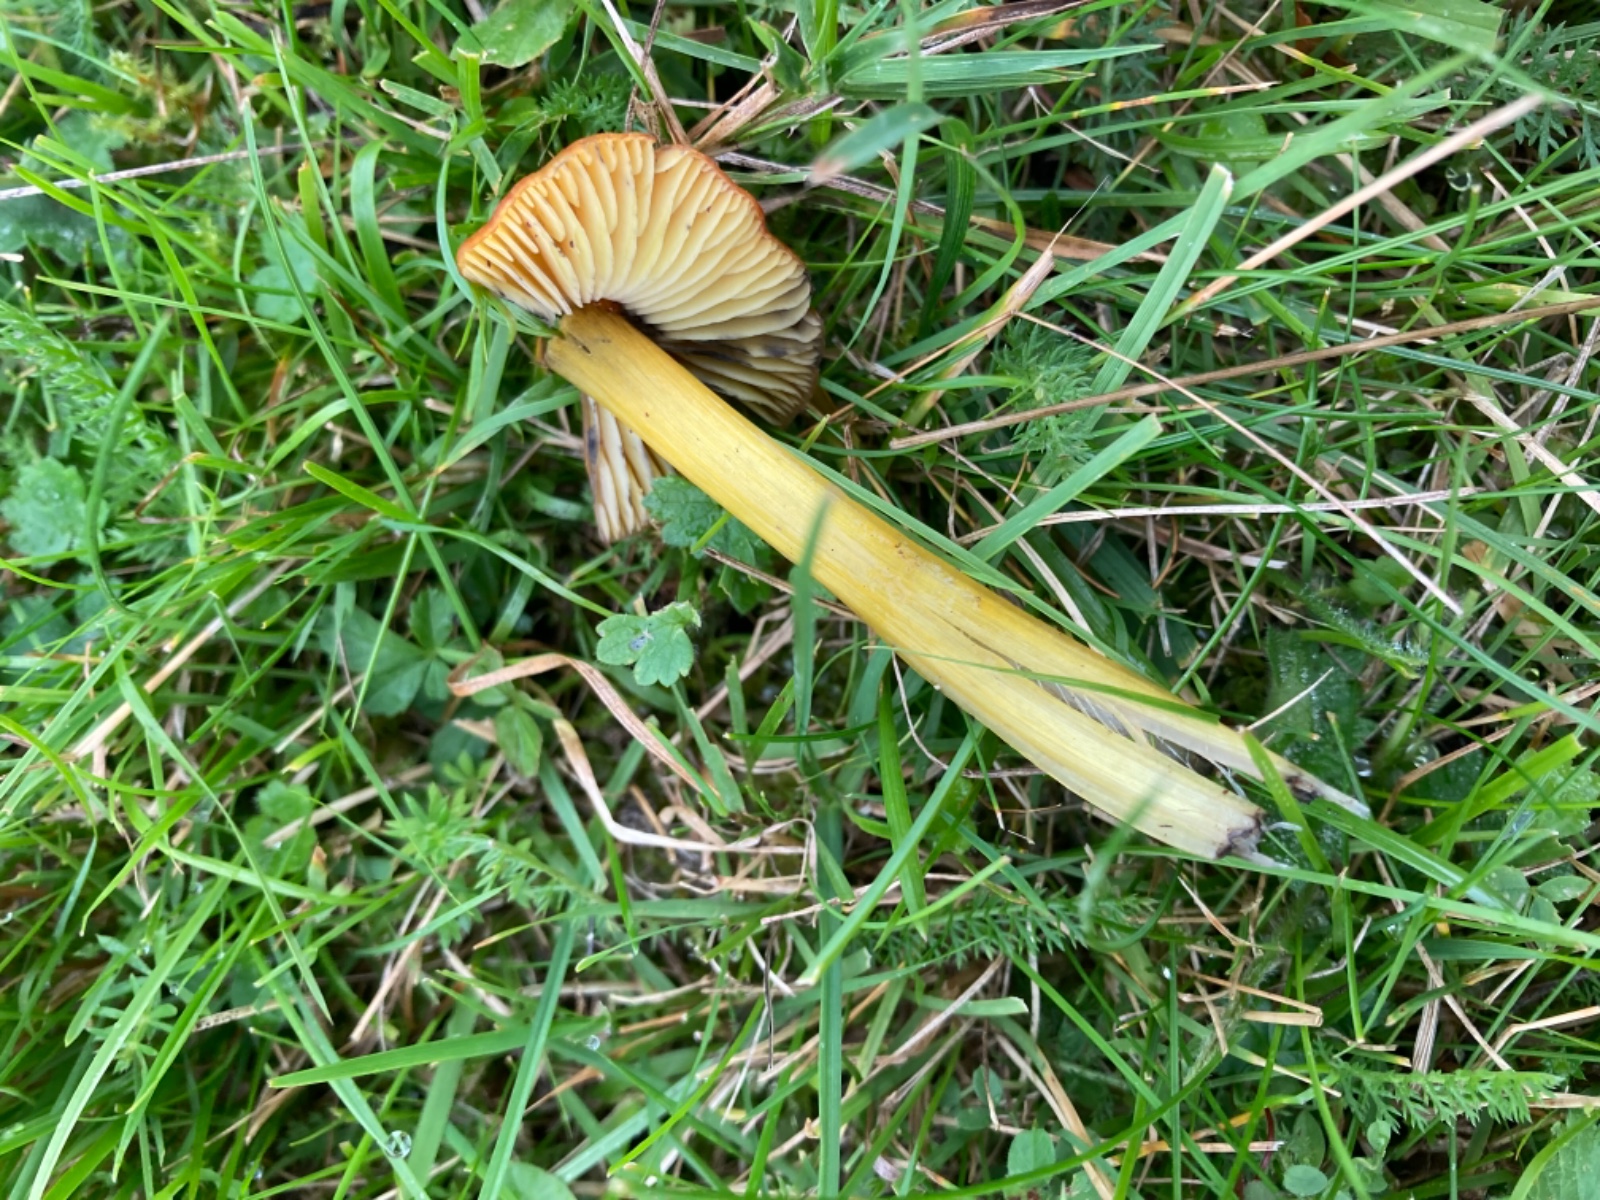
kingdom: Fungi
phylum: Basidiomycota
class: Agaricomycetes
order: Agaricales
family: Hygrophoraceae
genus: Hygrocybe
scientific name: Hygrocybe conica
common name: kegle-vokshat
